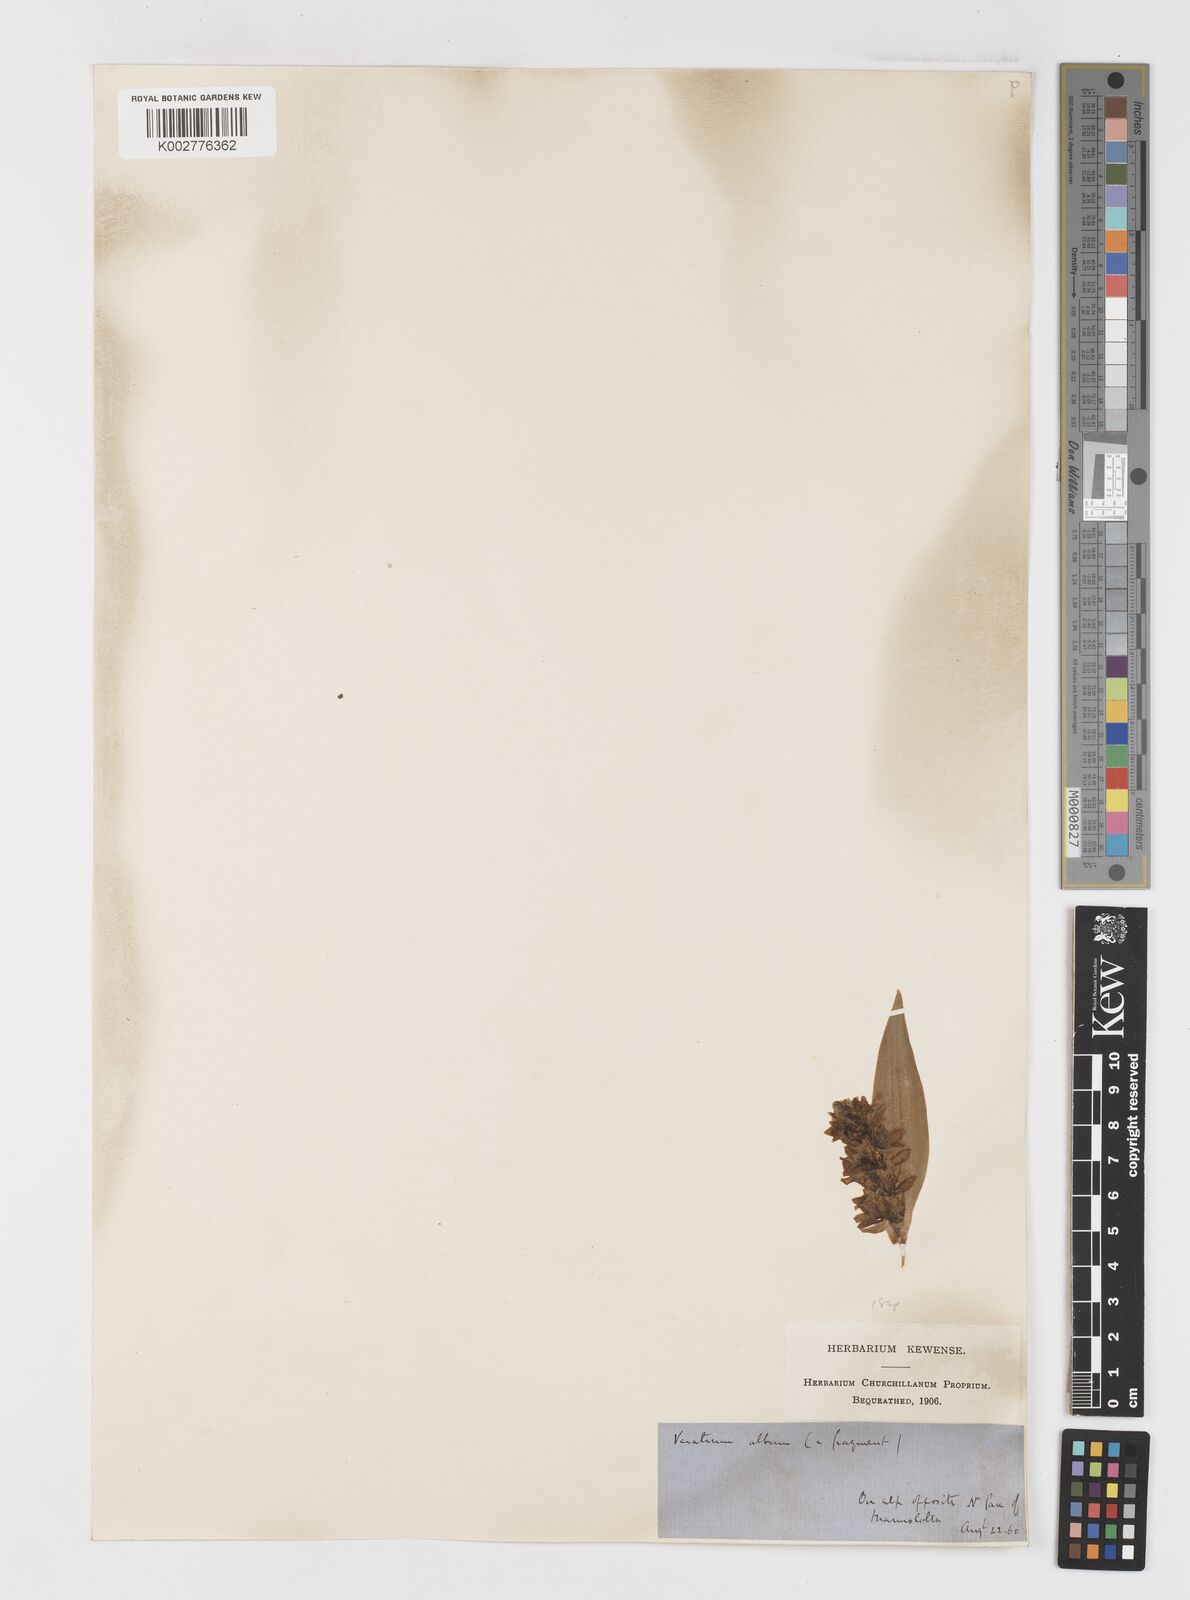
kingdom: Plantae
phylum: Tracheophyta
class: Liliopsida
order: Liliales
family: Melanthiaceae
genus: Veratrum
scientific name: Veratrum nigrum
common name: Black veratrum
